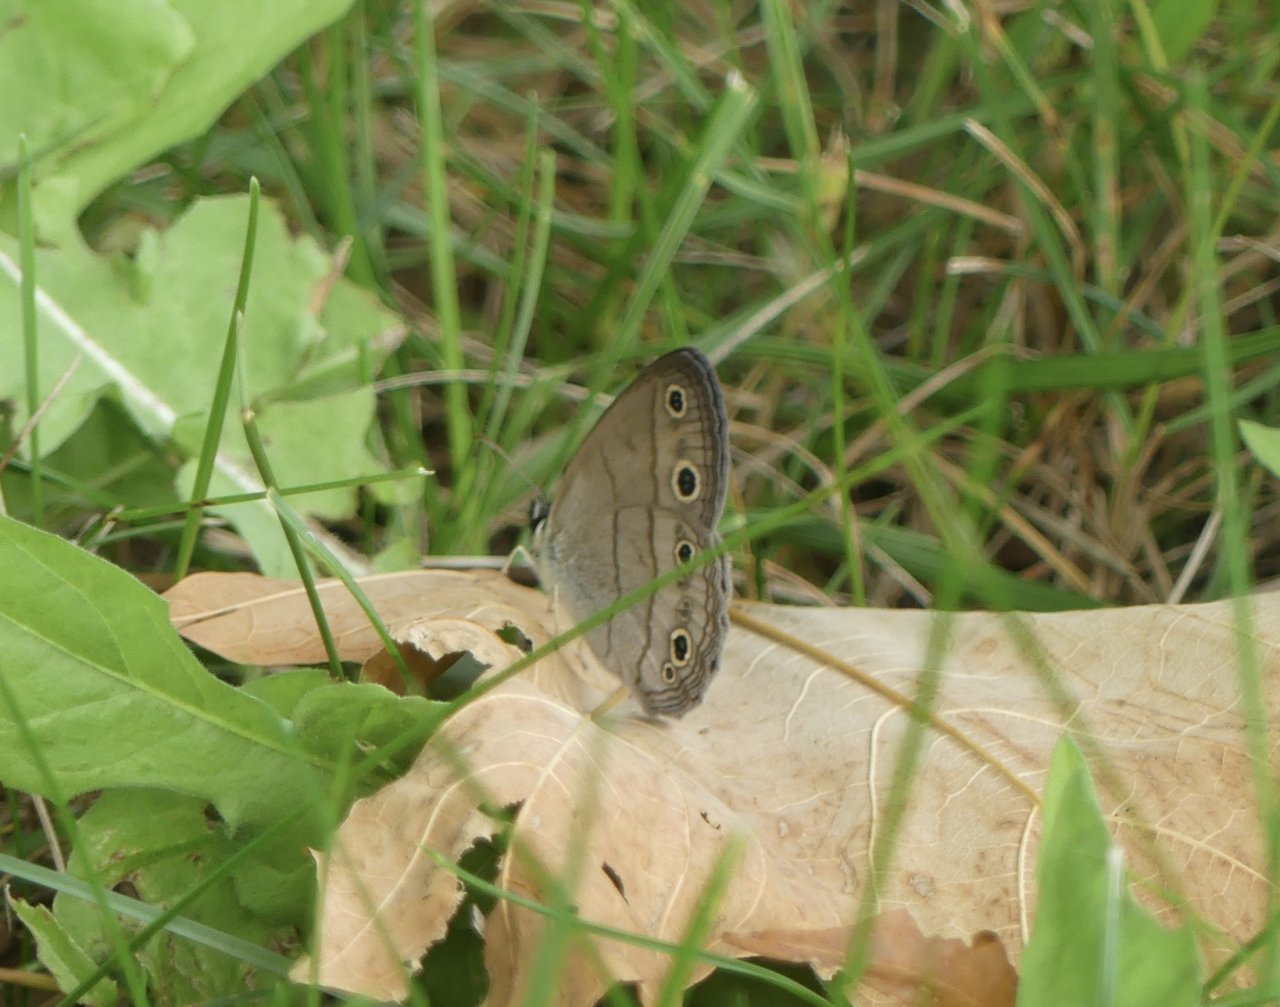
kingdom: Animalia
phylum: Arthropoda
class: Insecta
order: Lepidoptera
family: Nymphalidae
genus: Euptychia
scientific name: Euptychia cymela
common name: Little Wood Satyr
